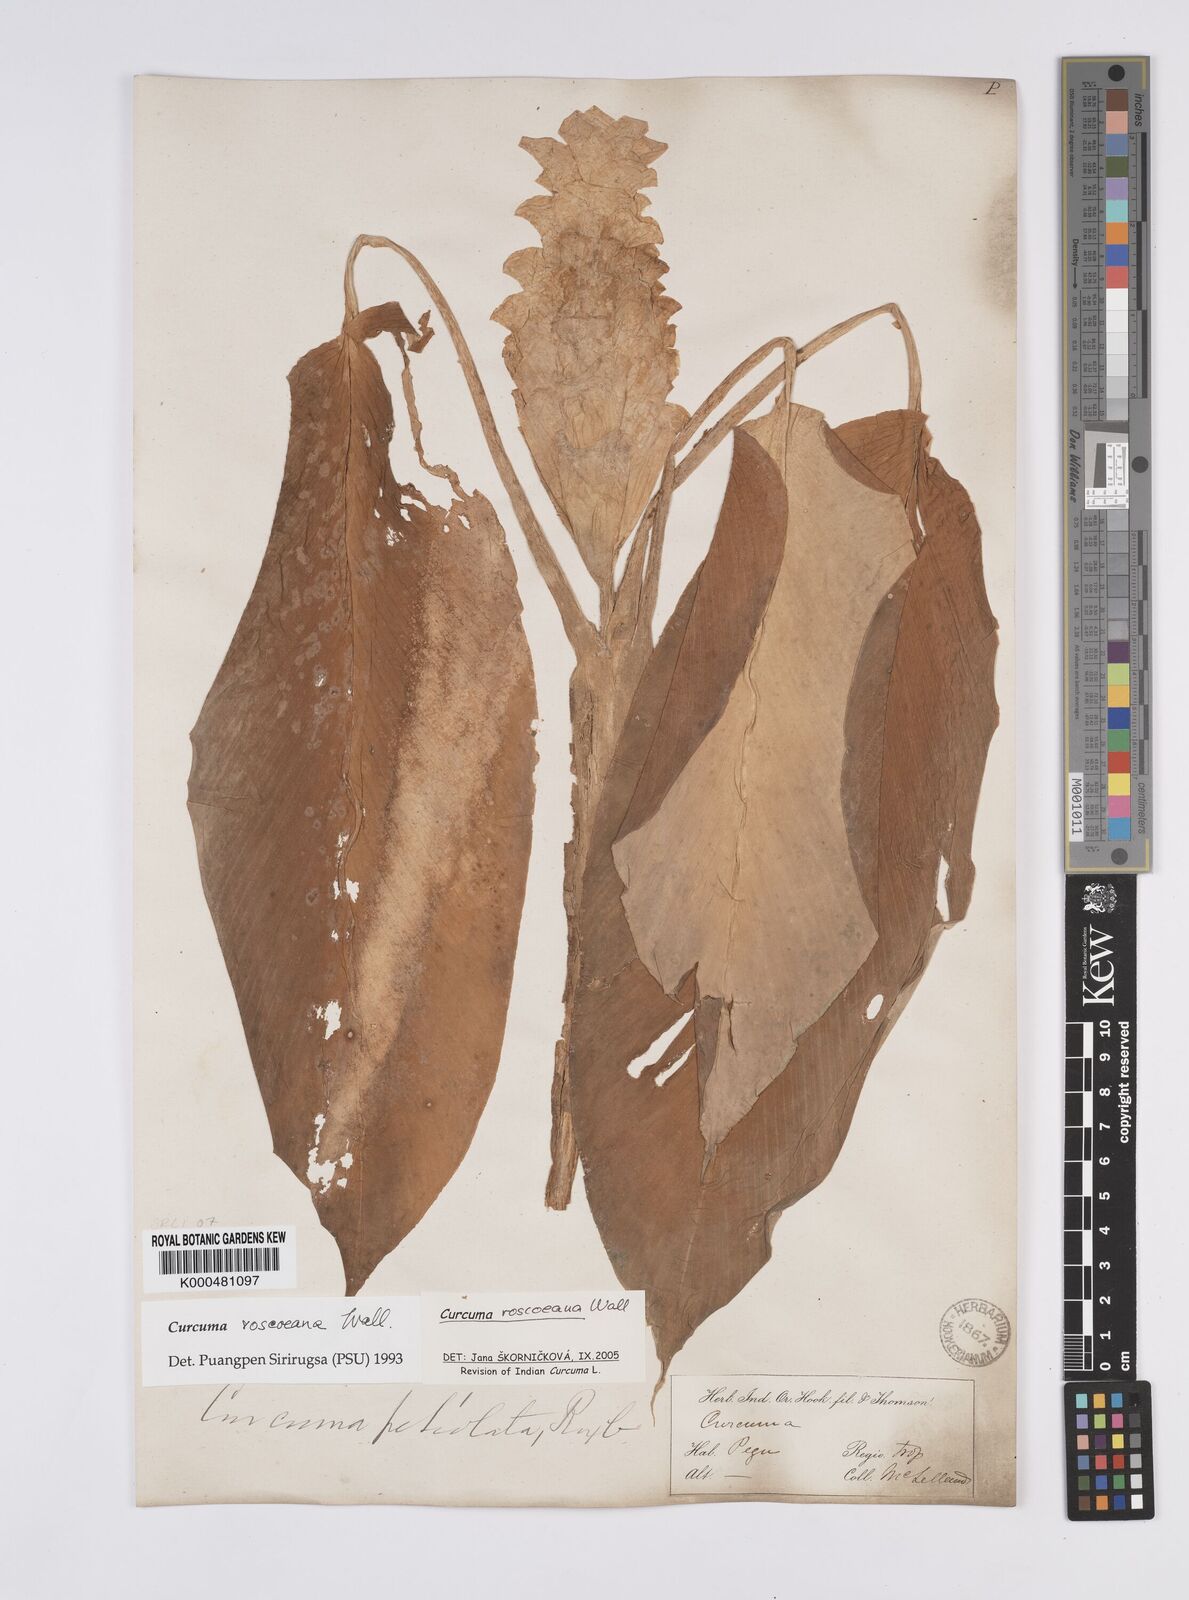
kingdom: Plantae
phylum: Tracheophyta
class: Liliopsida
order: Zingiberales
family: Zingiberaceae
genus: Curcuma
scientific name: Curcuma roscoeana
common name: Jewel of burma
